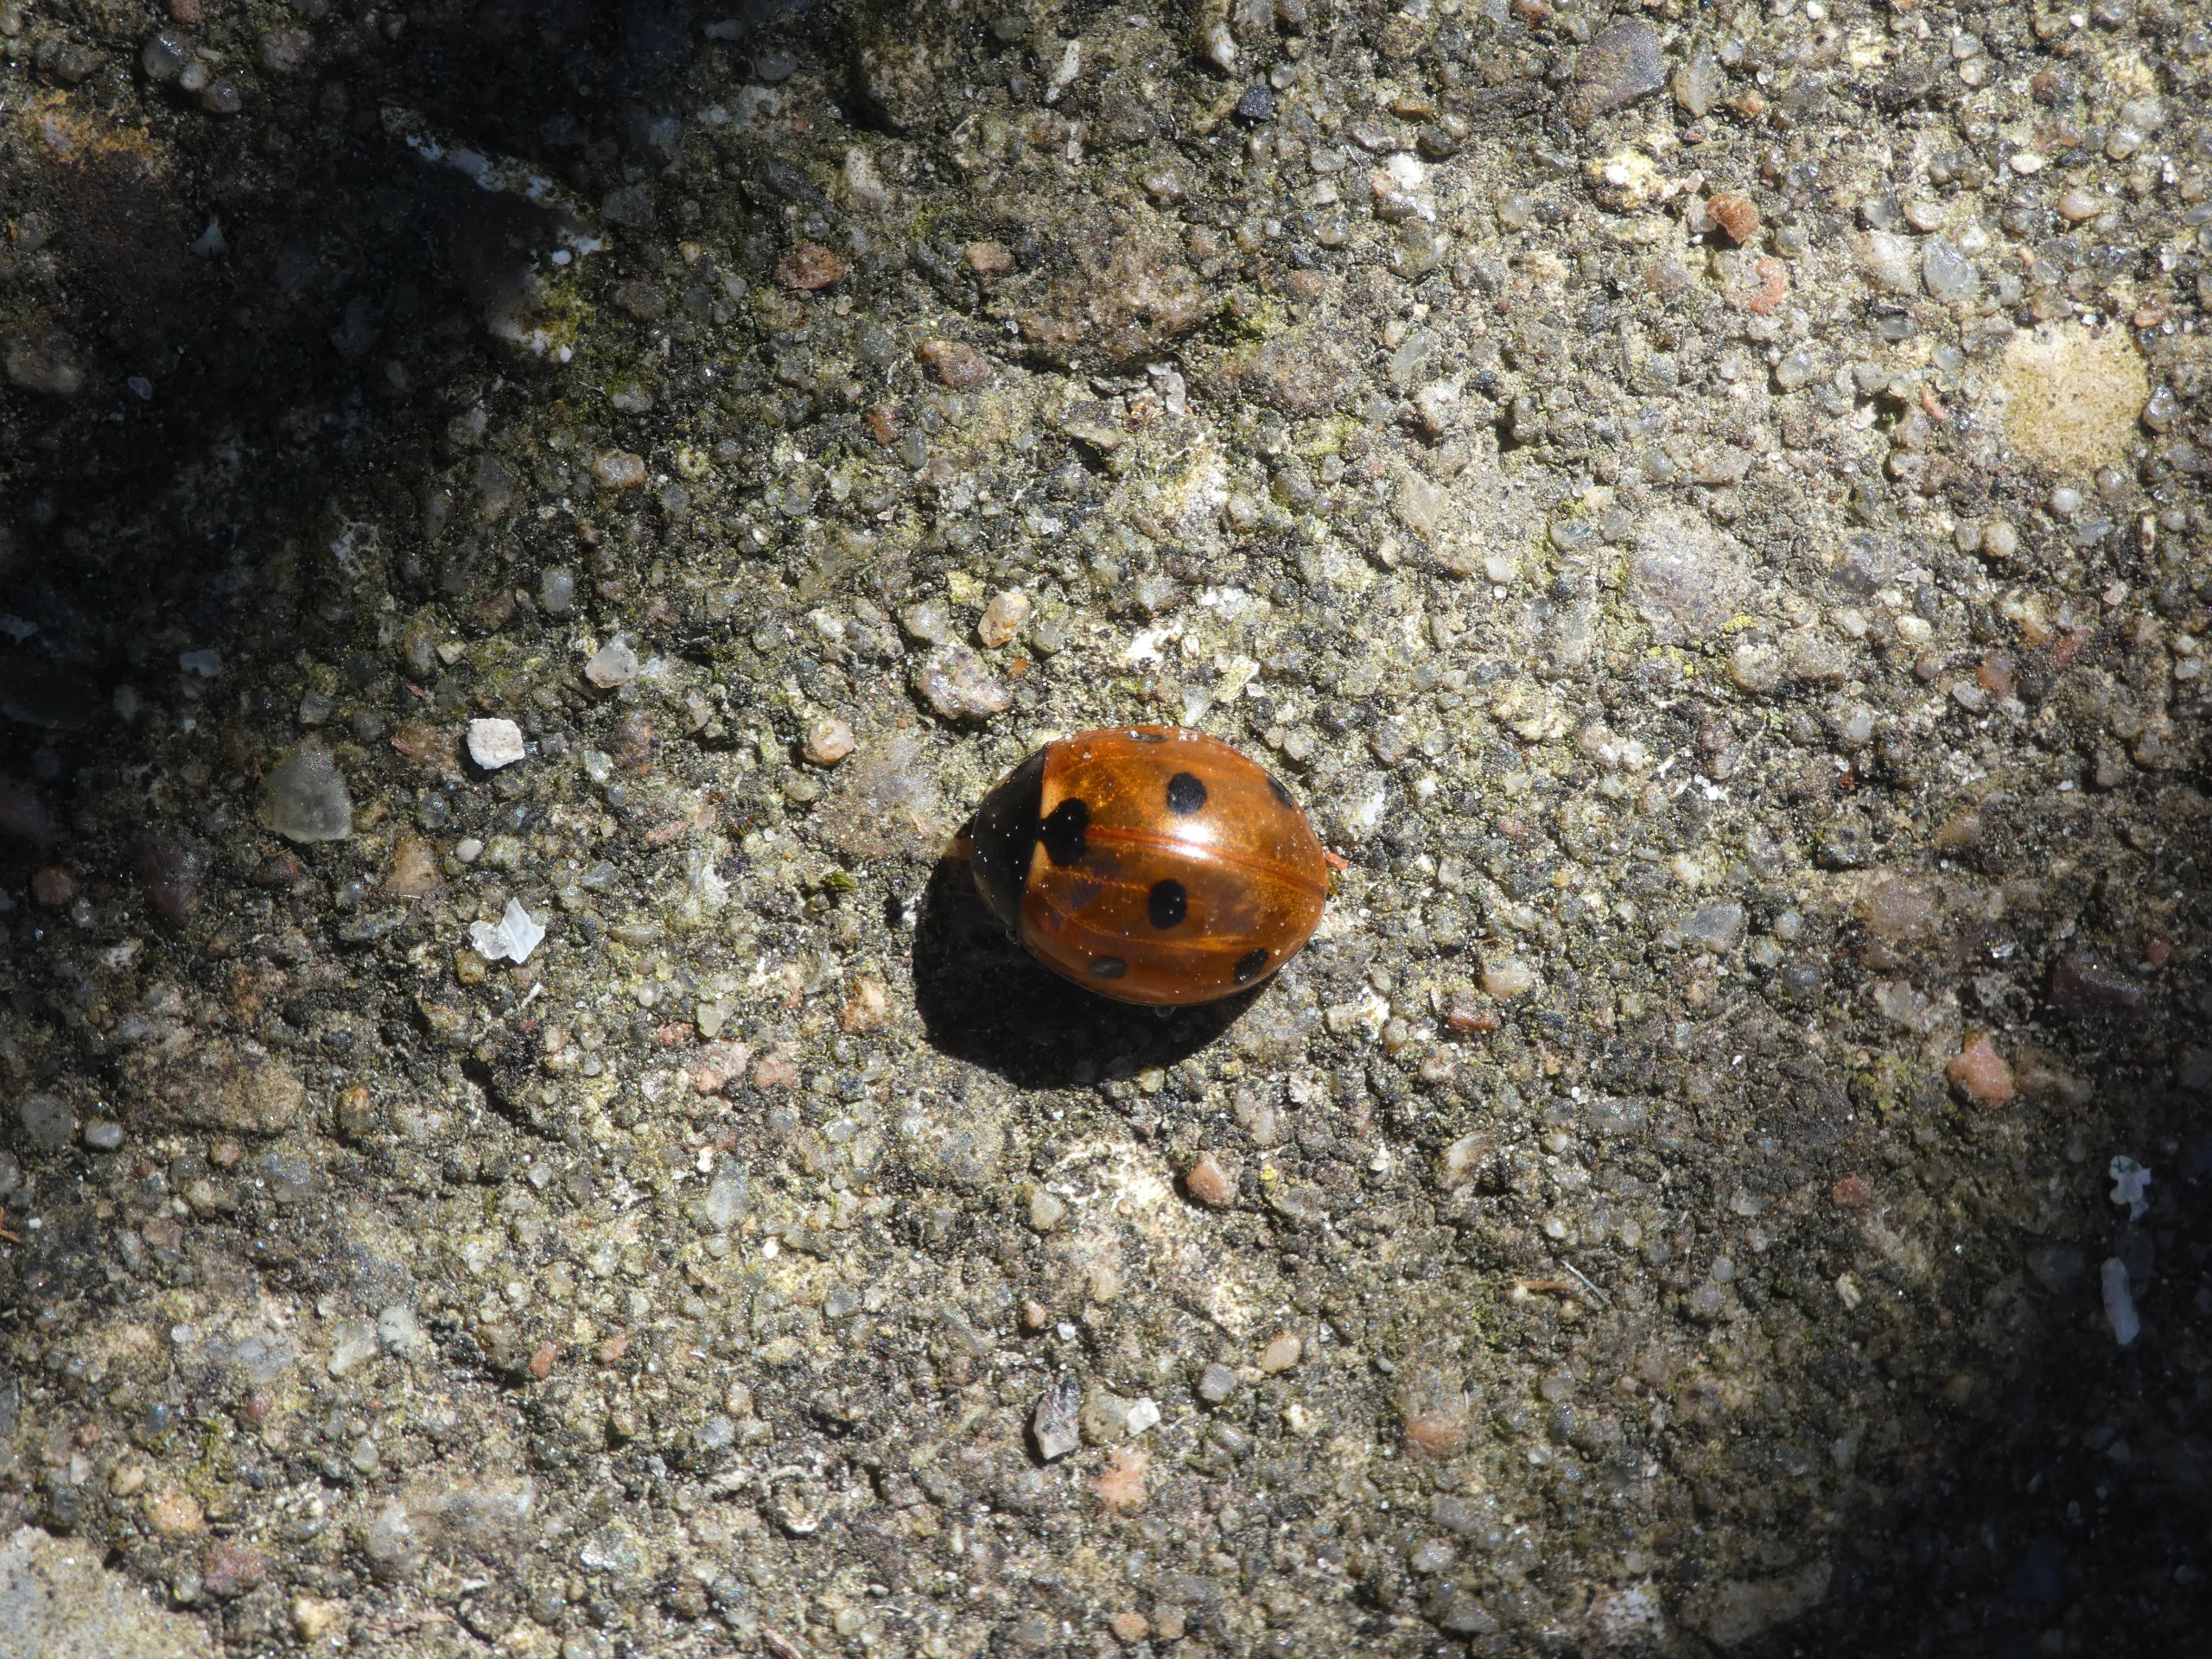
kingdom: Animalia
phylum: Arthropoda
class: Insecta
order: Coleoptera
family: Coccinellidae
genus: Coccinella
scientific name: Coccinella septempunctata
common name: Syvplettet mariehøne
